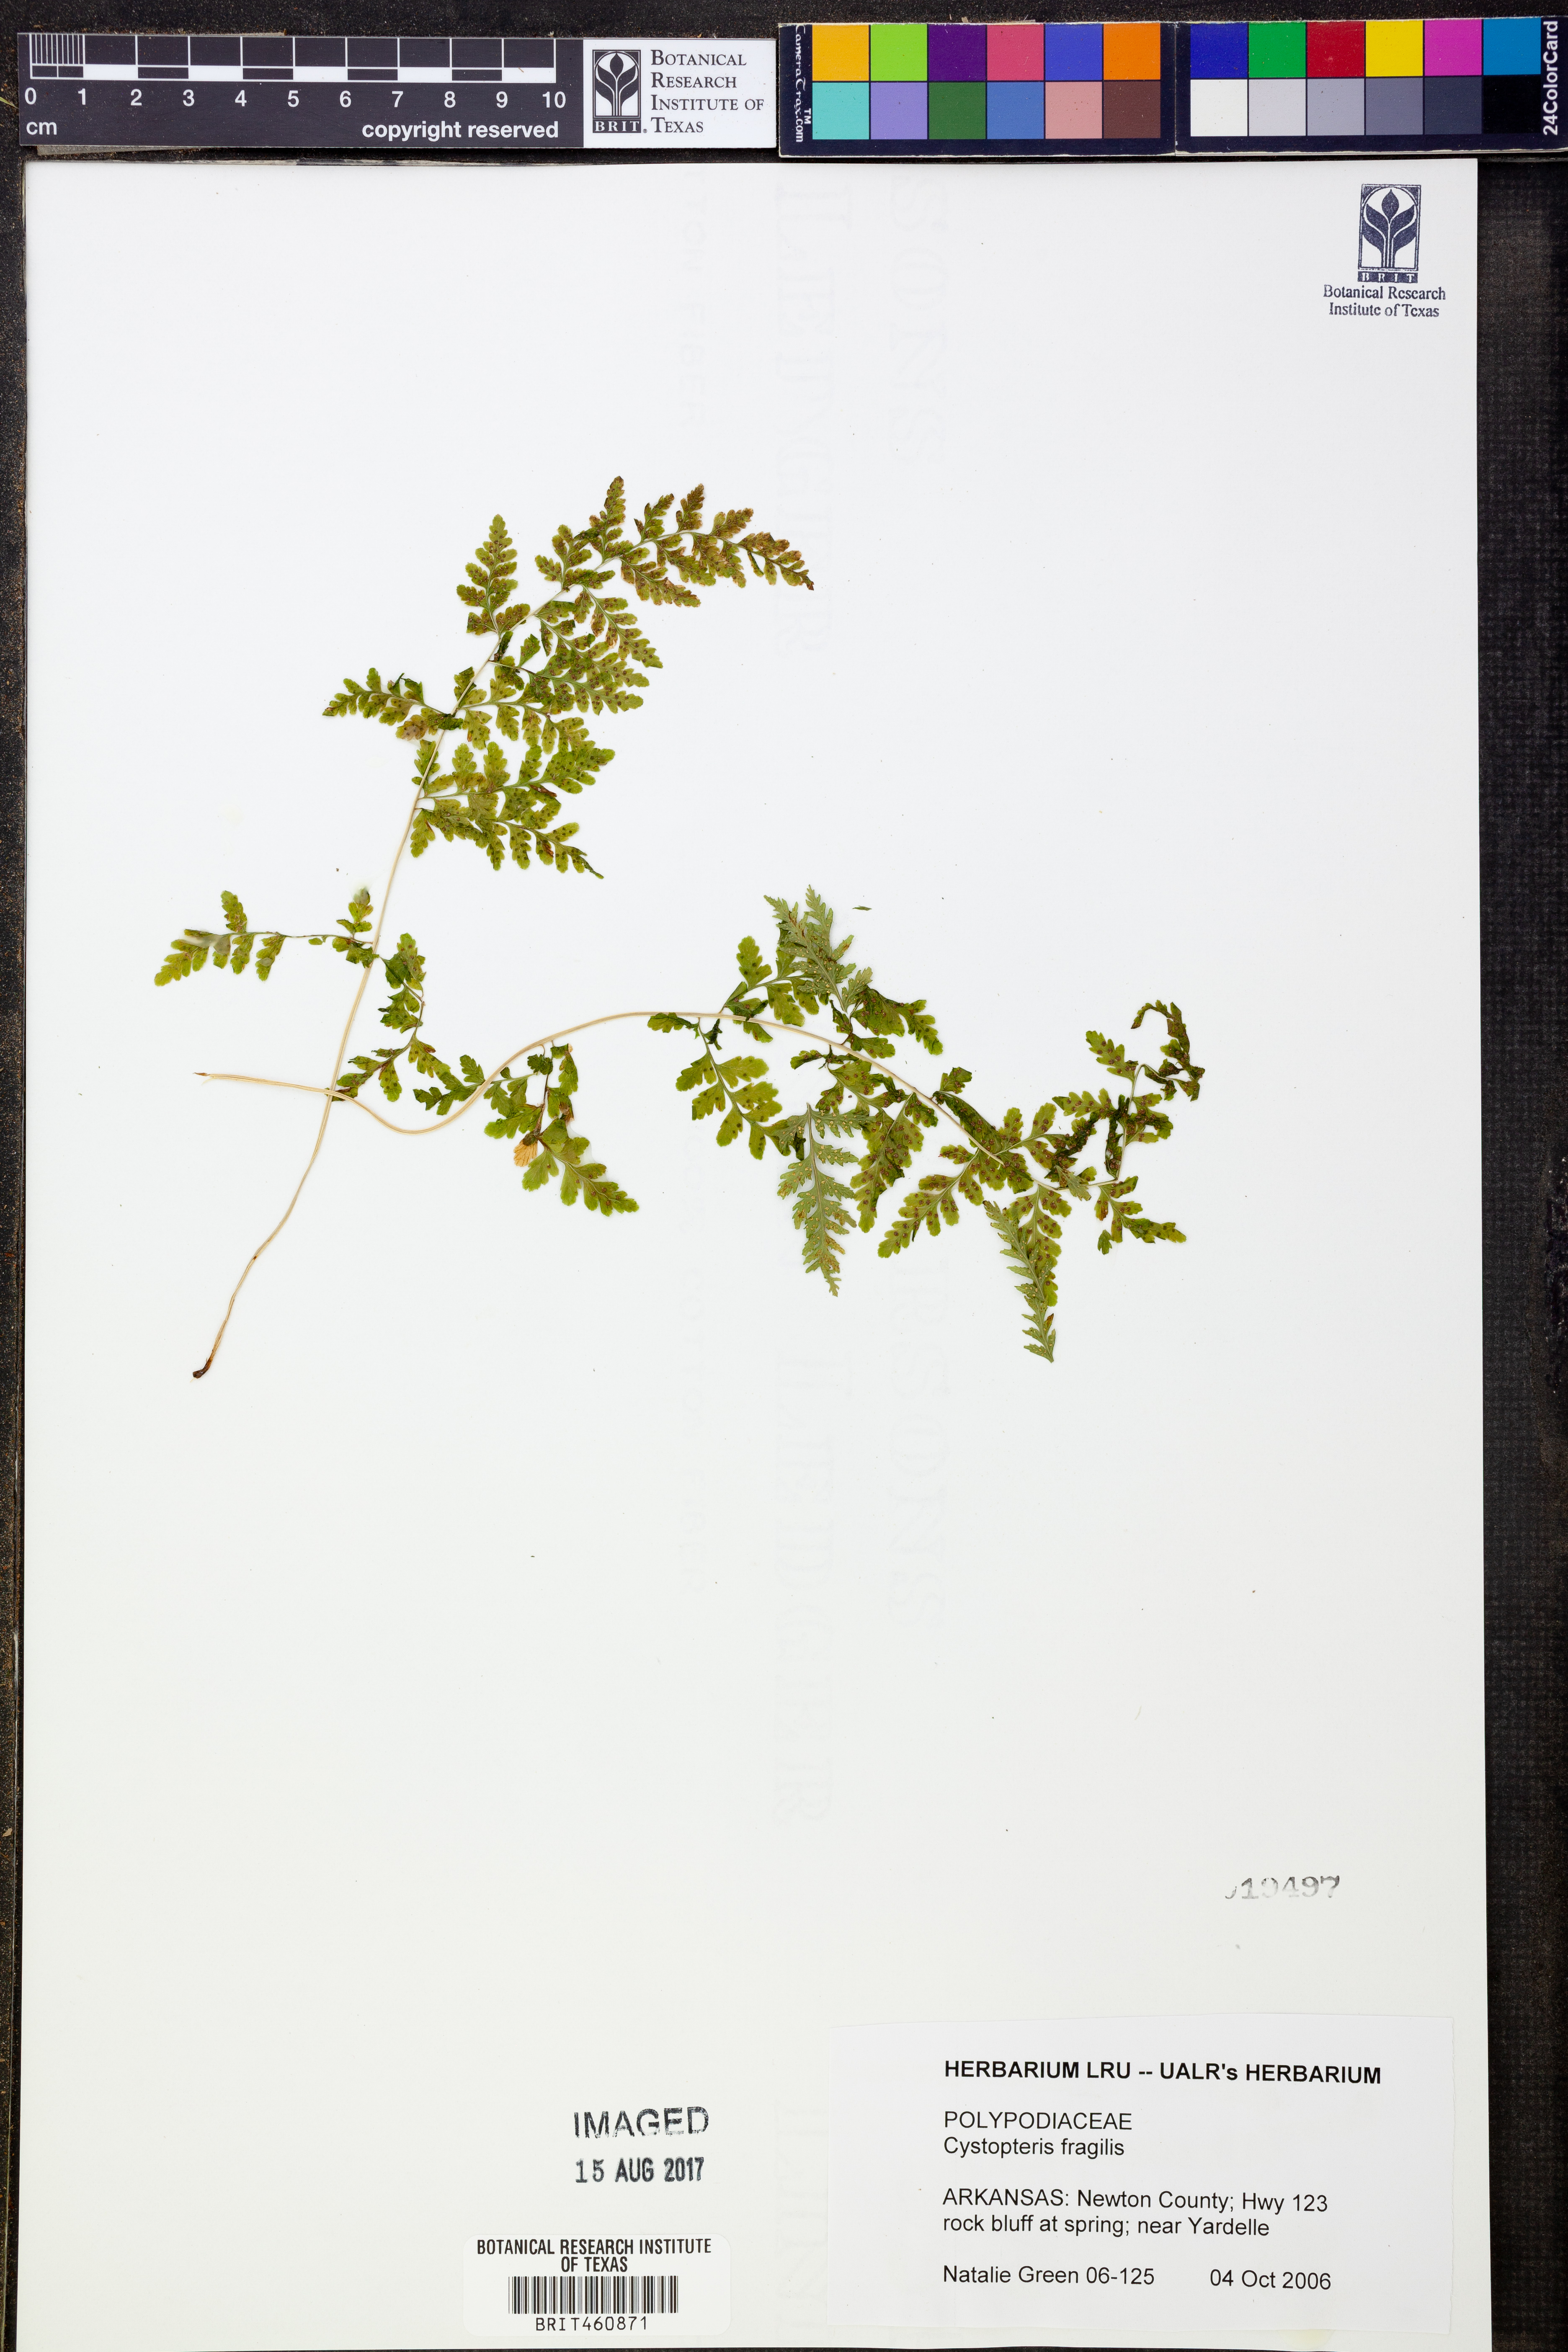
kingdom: Plantae
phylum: Tracheophyta
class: Polypodiopsida
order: Polypodiales
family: Cystopteridaceae
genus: Cystopteris
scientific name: Cystopteris fragilis
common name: Brittle bladder fern
